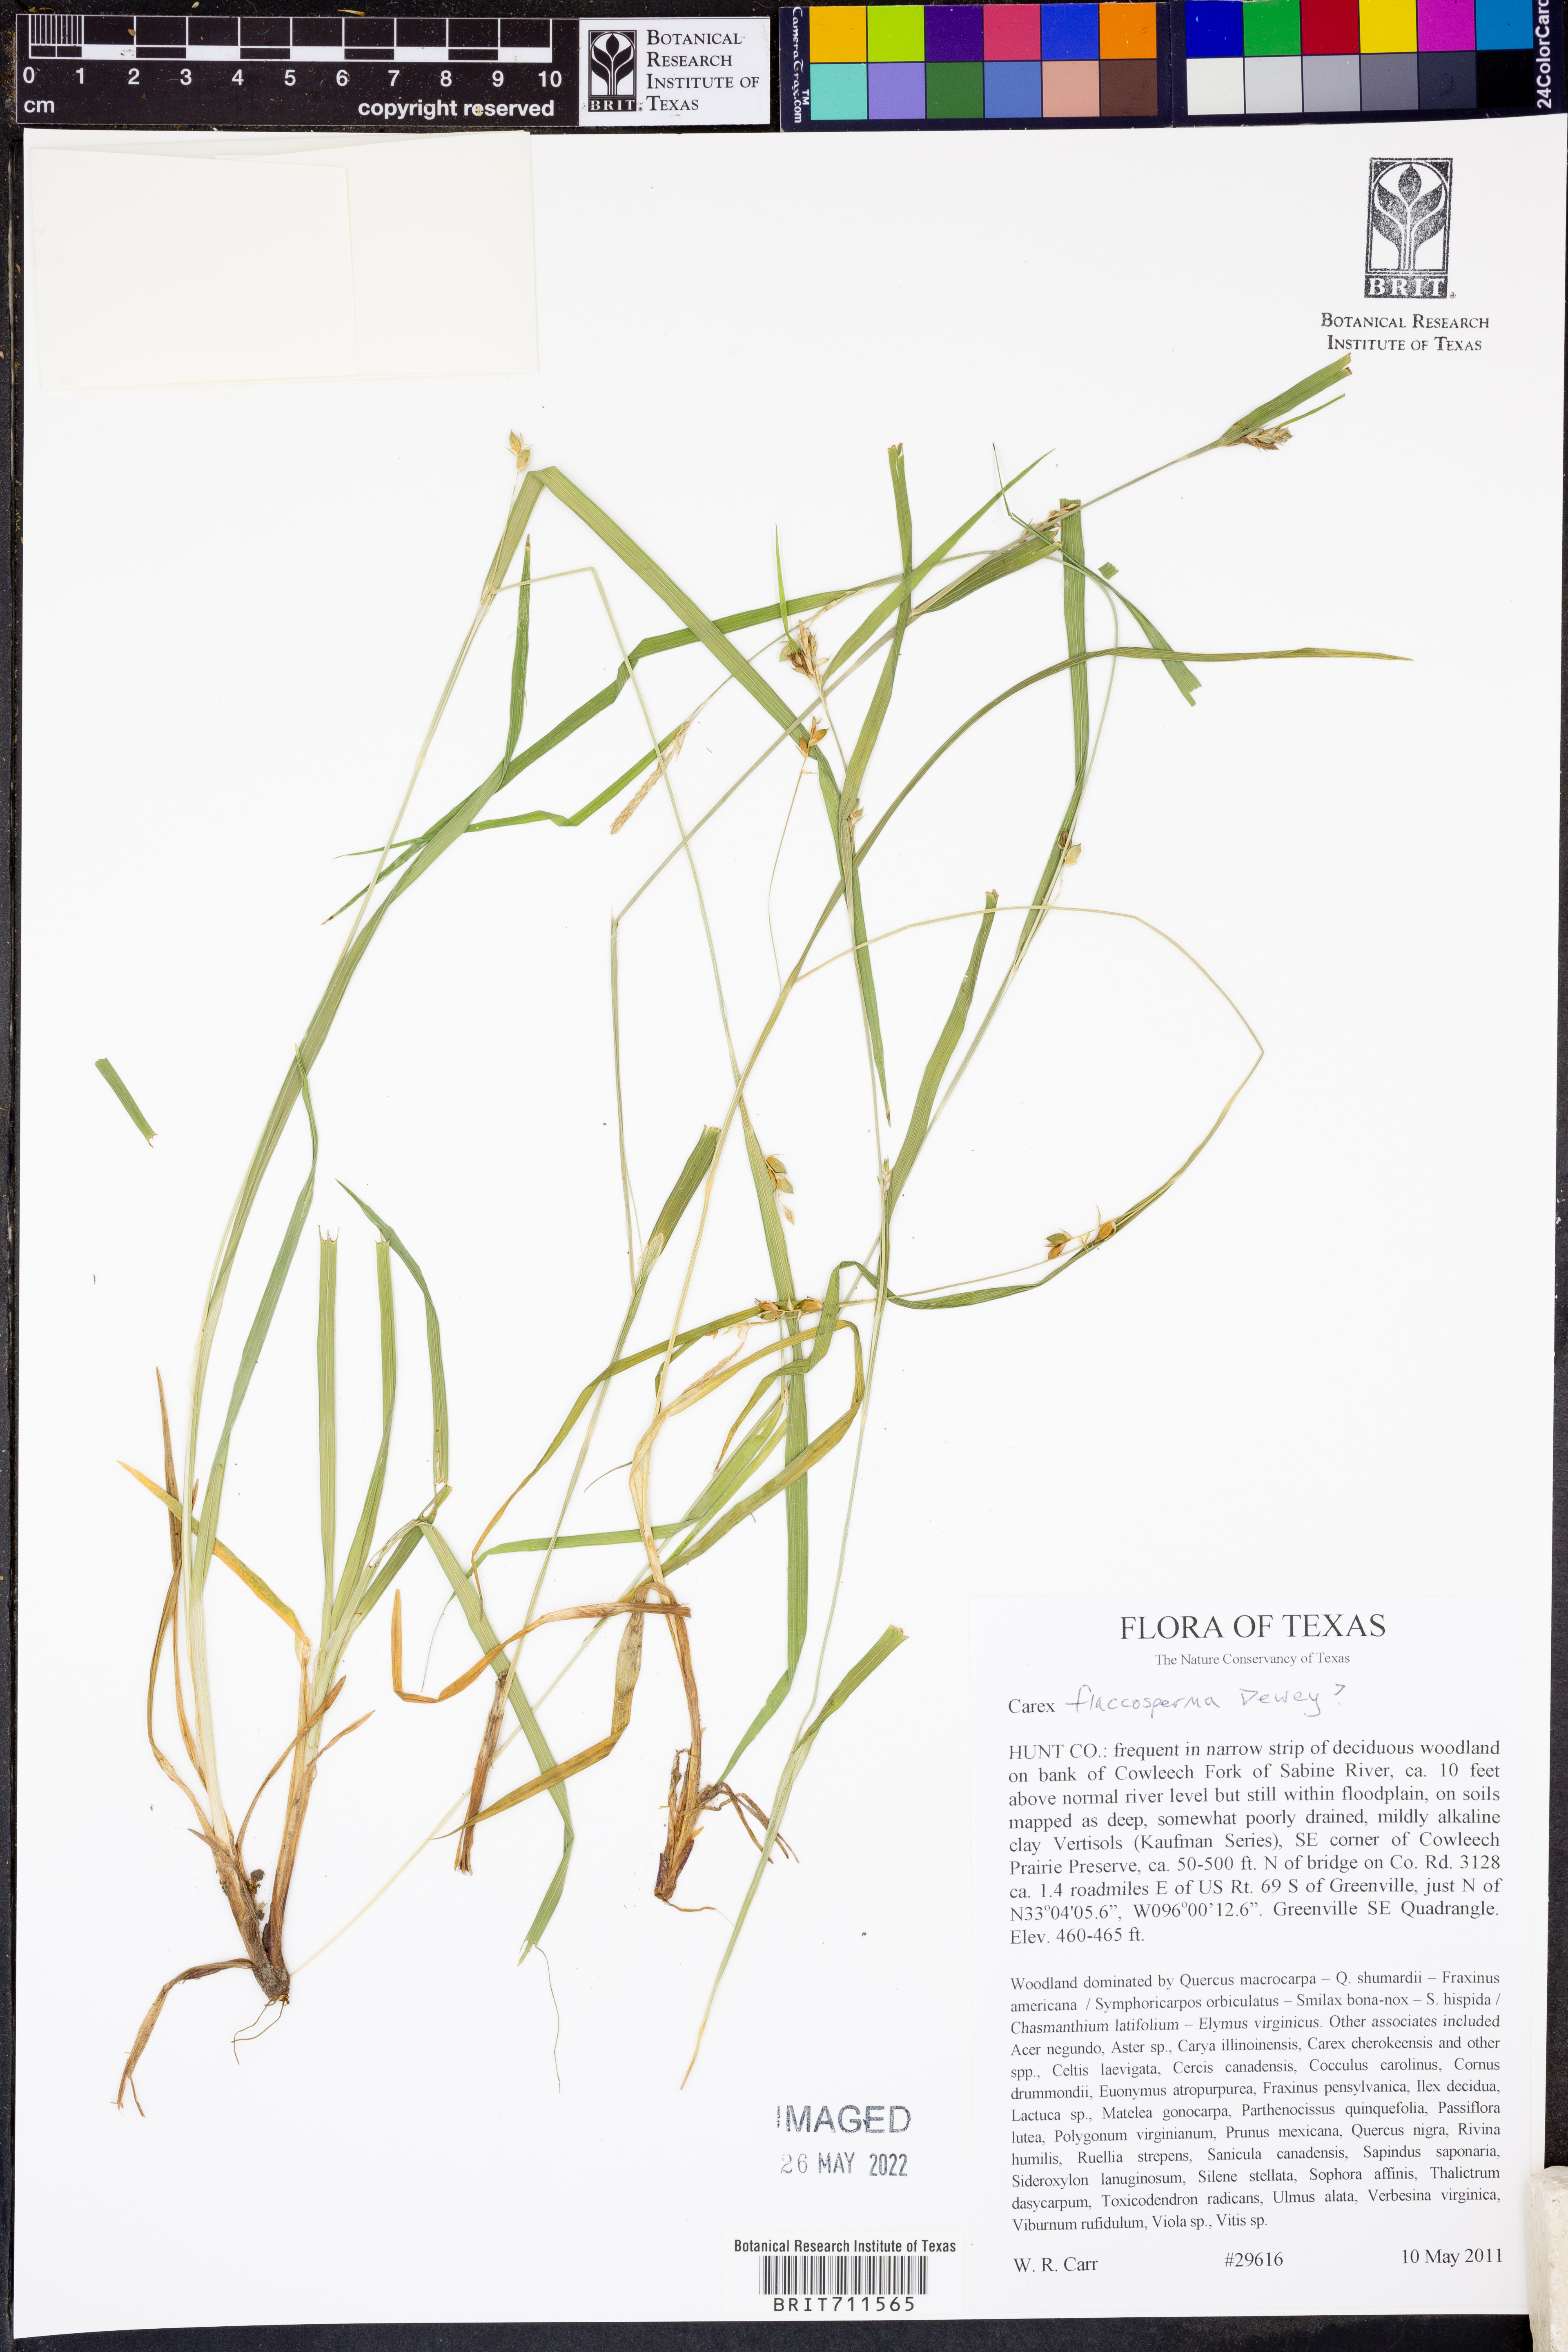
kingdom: Plantae
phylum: Tracheophyta
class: Liliopsida
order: Poales
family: Cyperaceae
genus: Carex
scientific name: Carex flaccosperma
